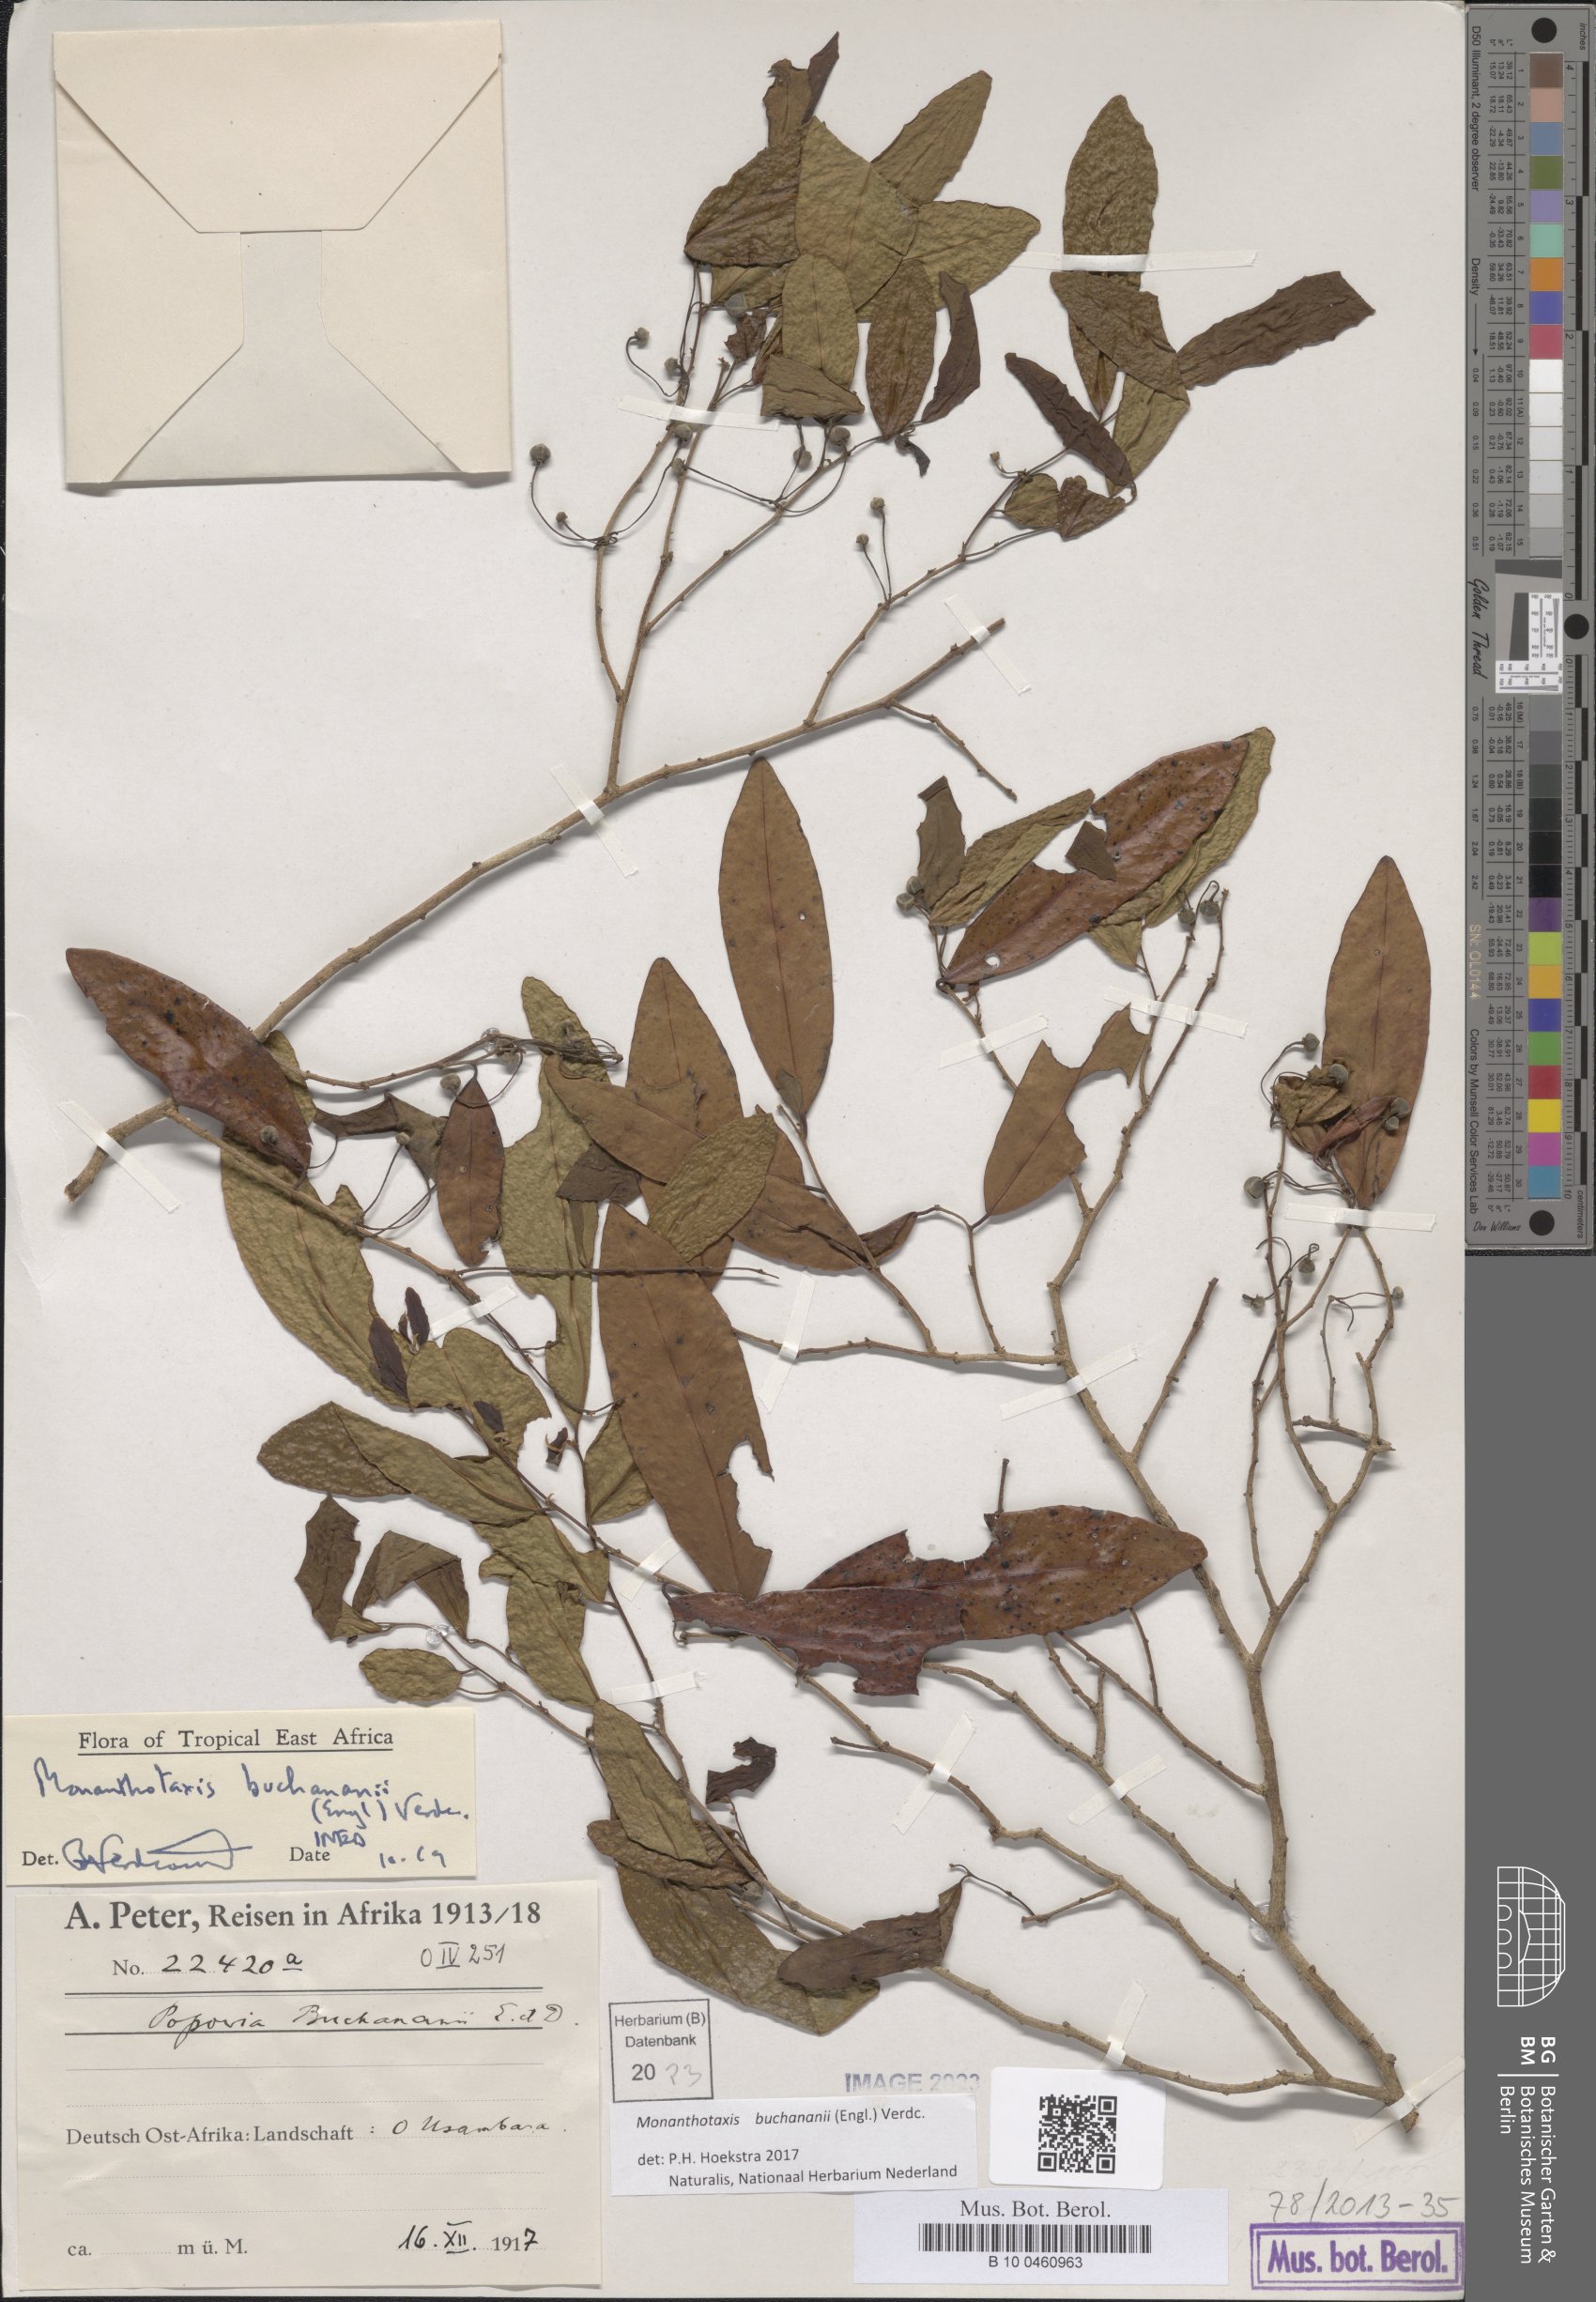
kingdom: Plantae
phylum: Tracheophyta
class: Magnoliopsida
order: Magnoliales
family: Annonaceae
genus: Monanthotaxis
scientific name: Monanthotaxis buchananii
